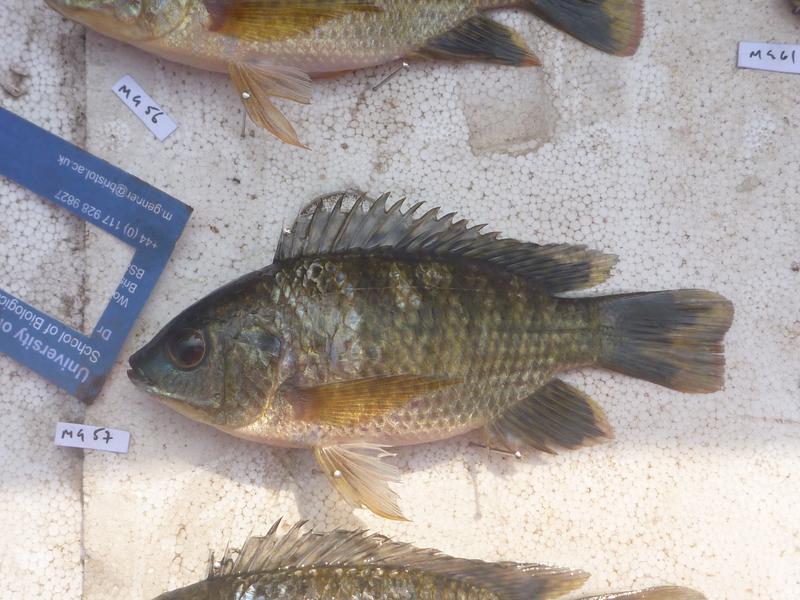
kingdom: Animalia
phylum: Chordata
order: Perciformes
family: Cichlidae
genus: Oreochromis
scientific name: Oreochromis leucostictus
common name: Blue spotted tilapia
